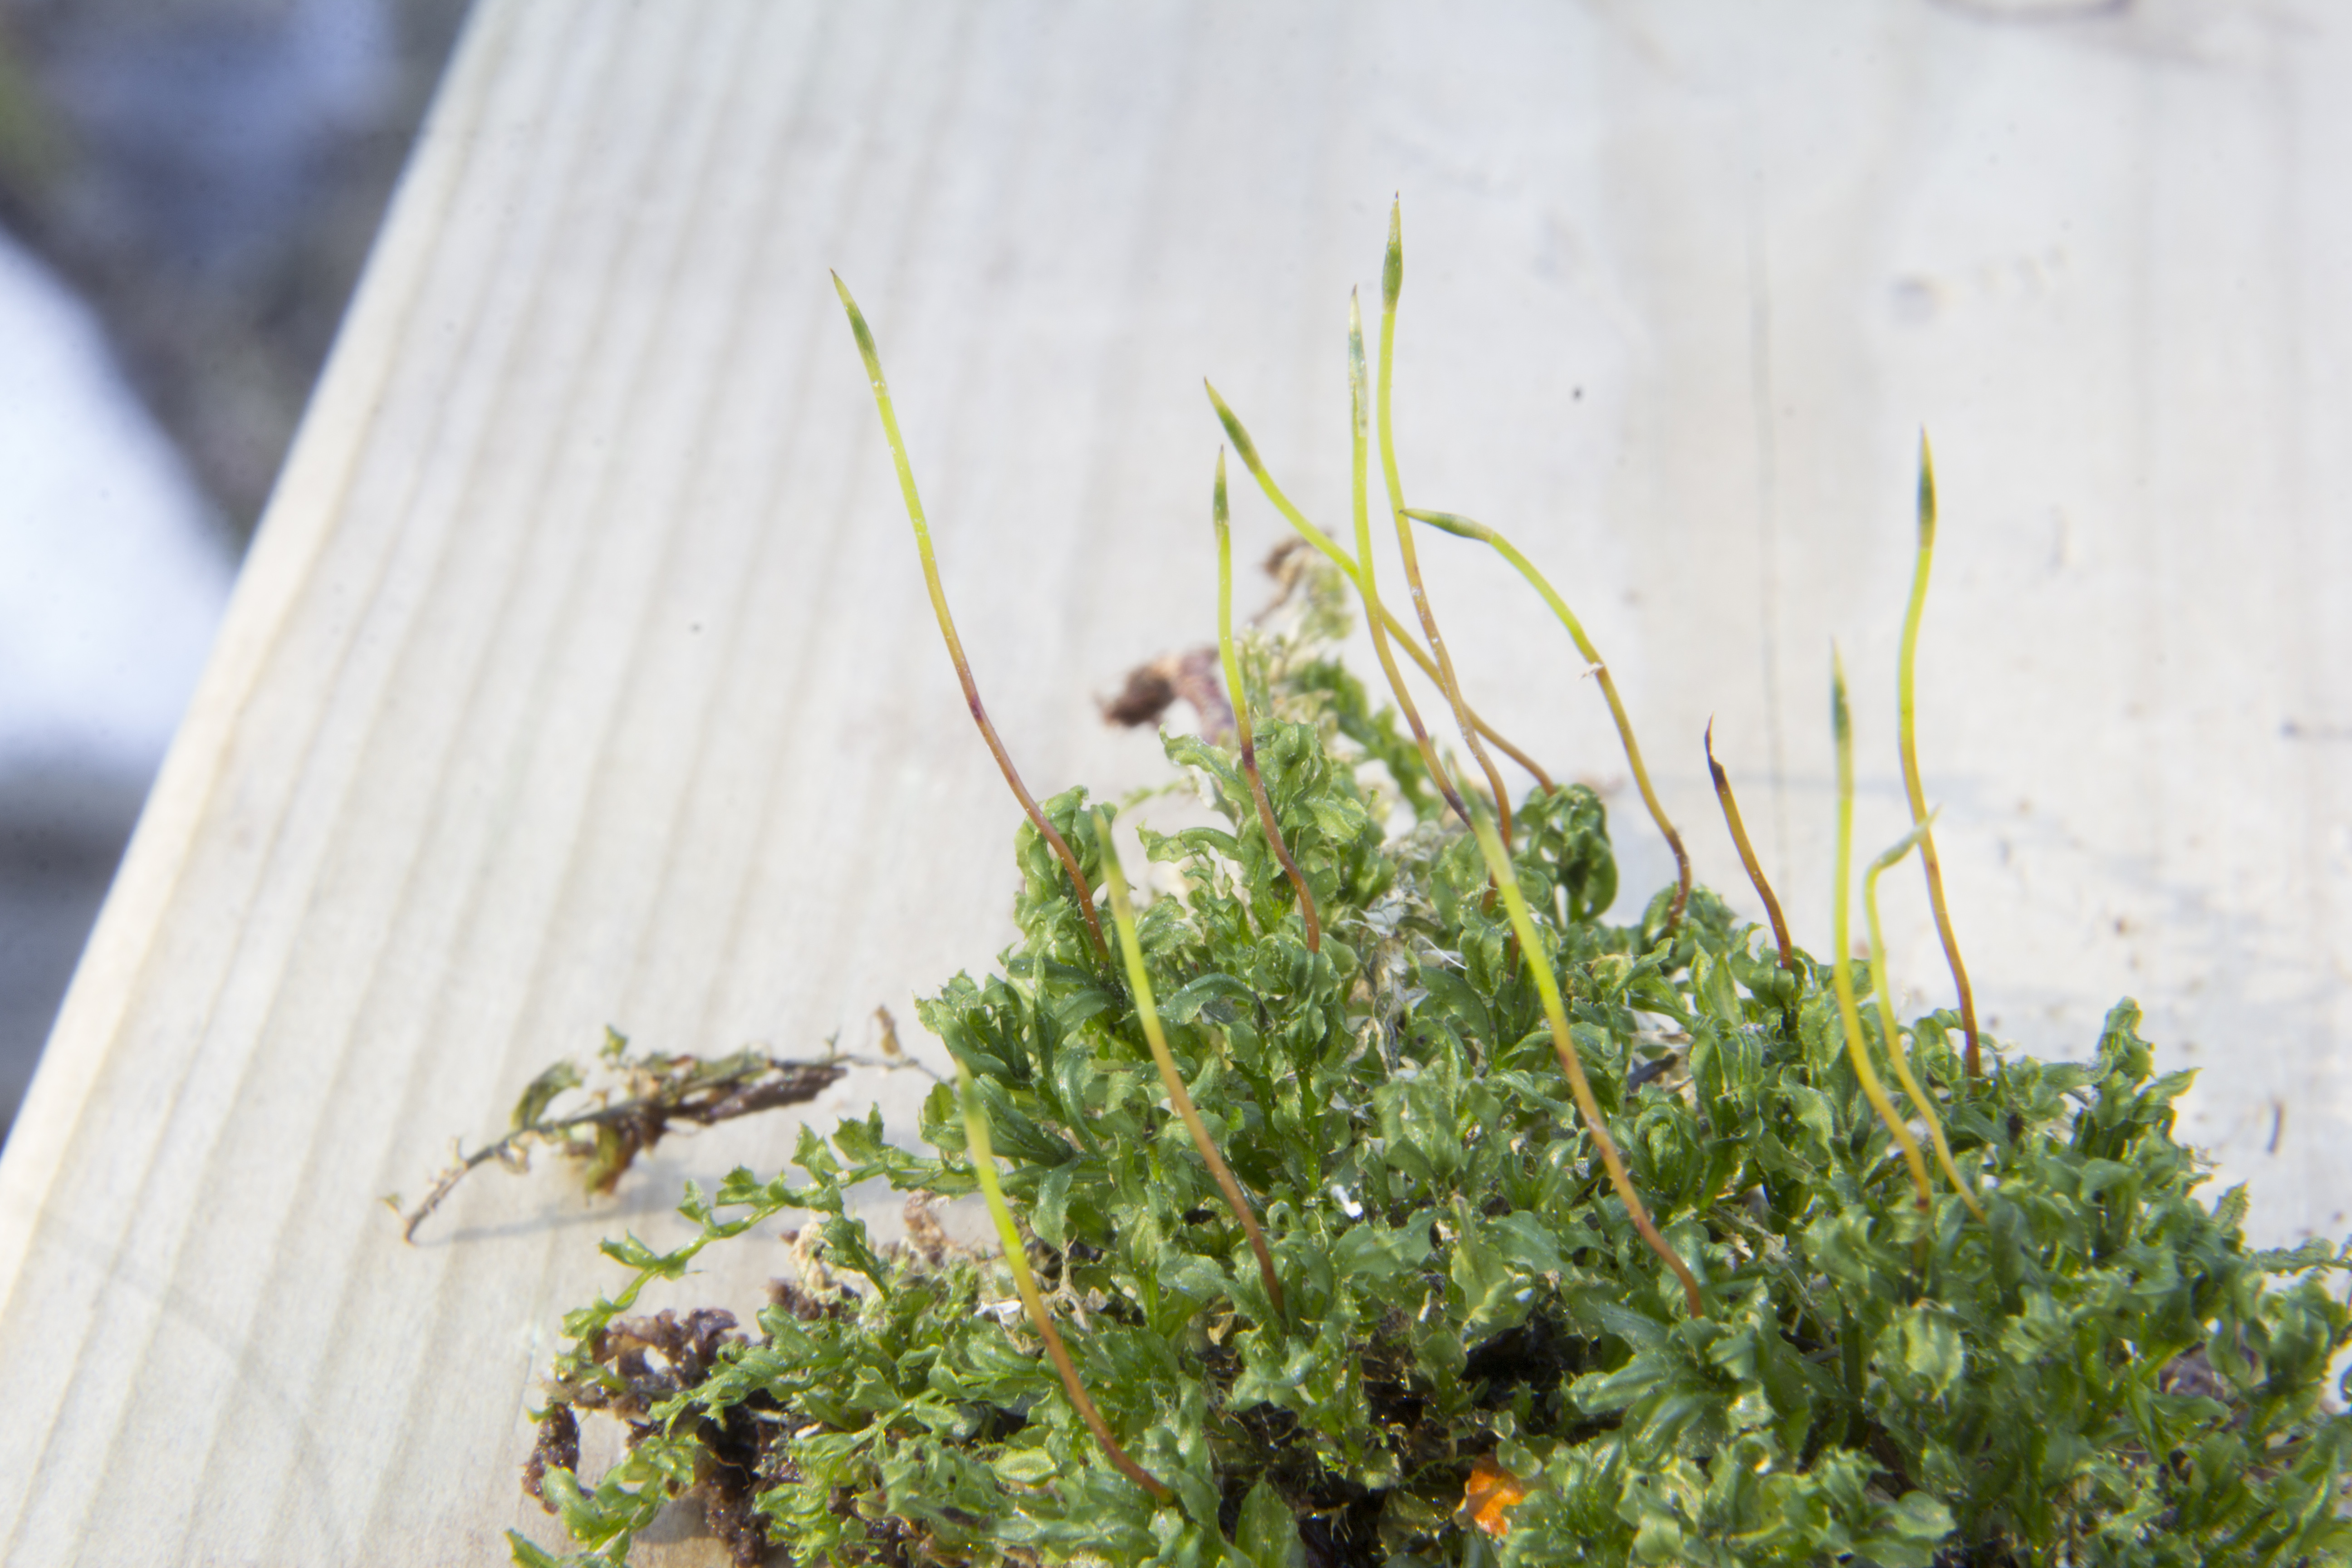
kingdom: Plantae
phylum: Bryophyta
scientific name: Bryophyta
